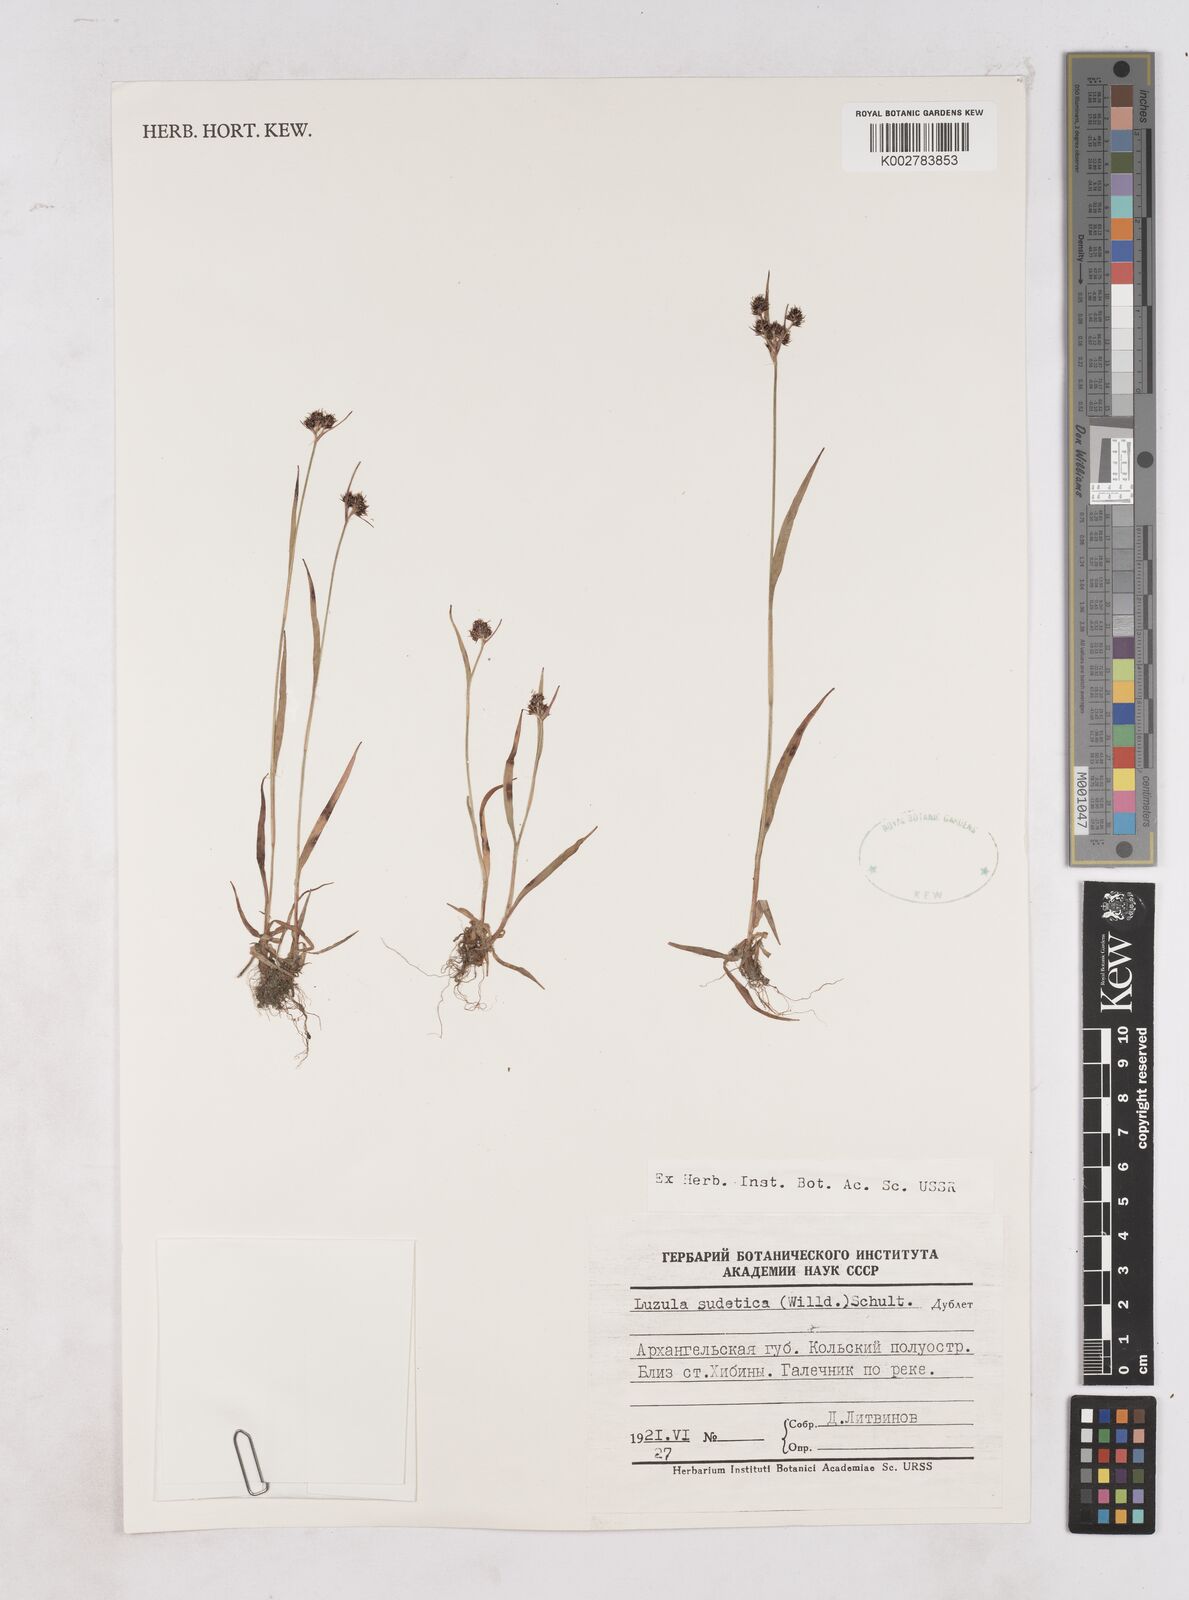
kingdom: Plantae
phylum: Tracheophyta
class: Liliopsida
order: Poales
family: Juncaceae
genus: Luzula
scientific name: Luzula sudetica
